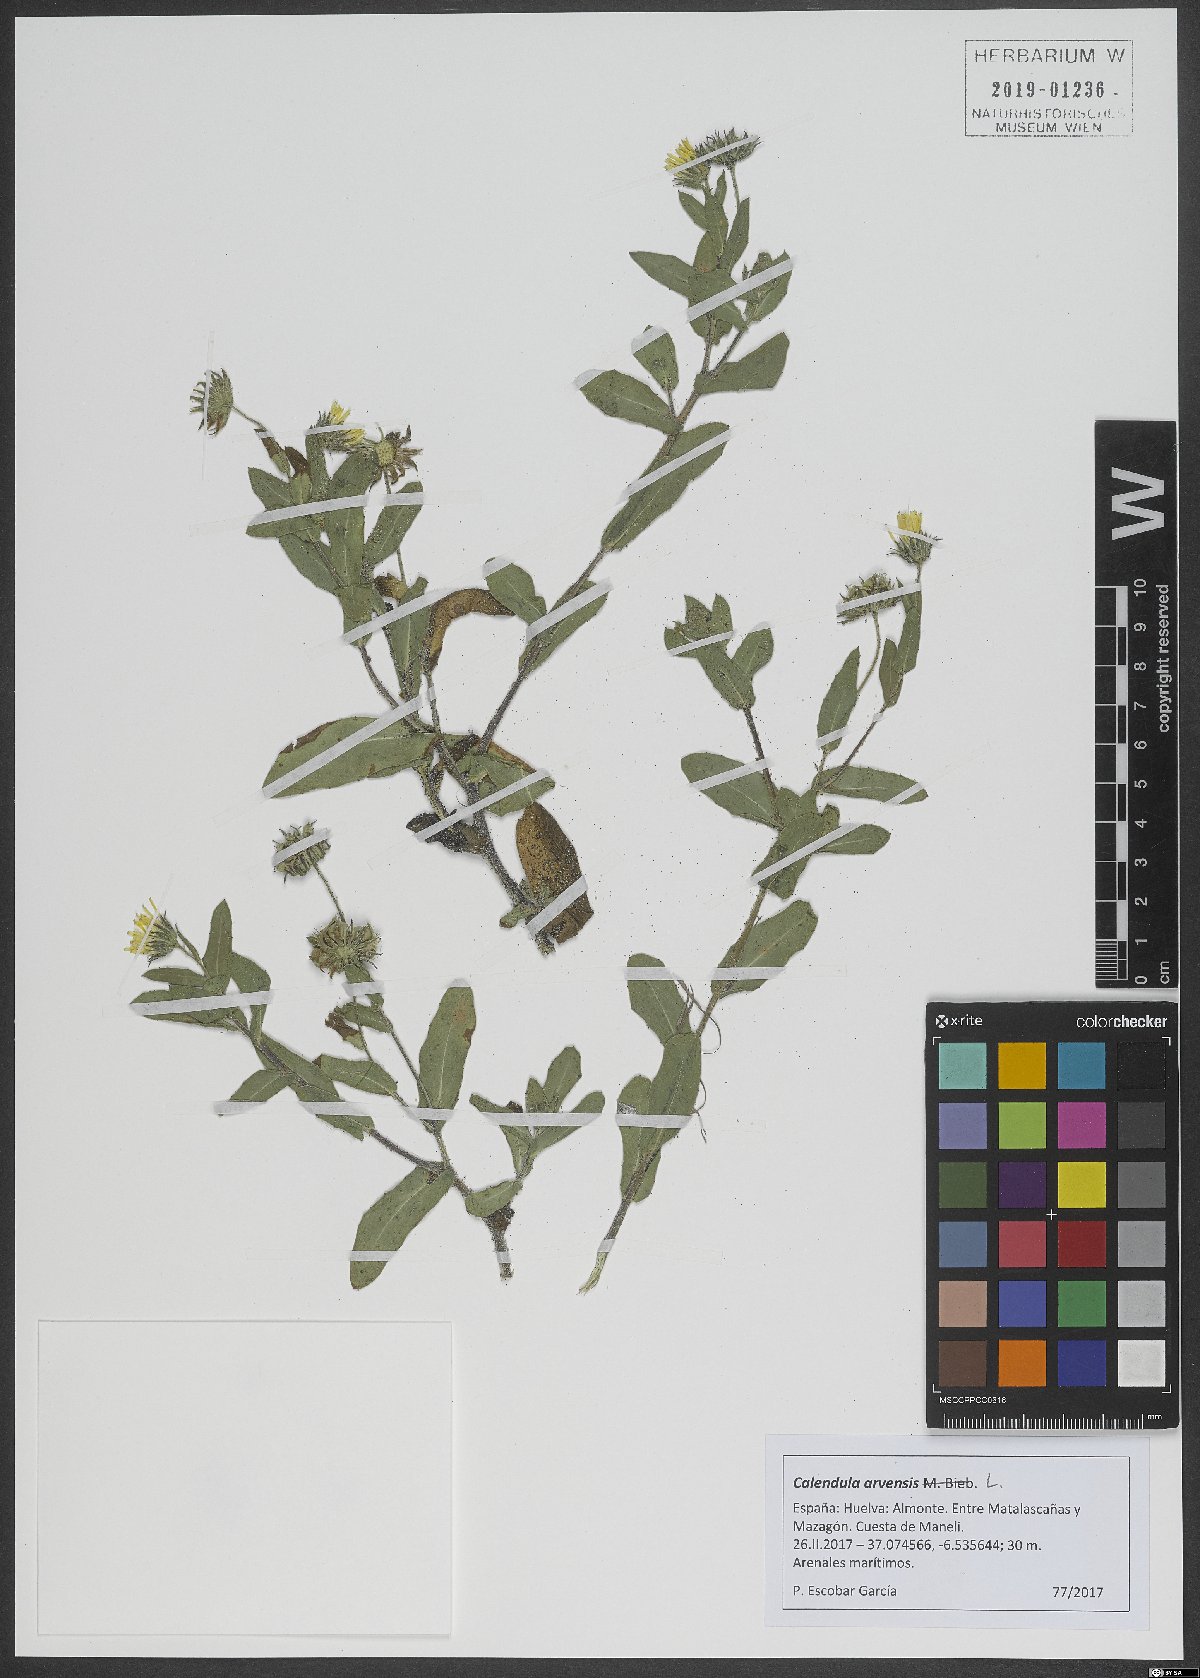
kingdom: Plantae
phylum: Tracheophyta
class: Magnoliopsida
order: Asterales
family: Asteraceae
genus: Calendula
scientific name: Calendula arvensis
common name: Field marigold
